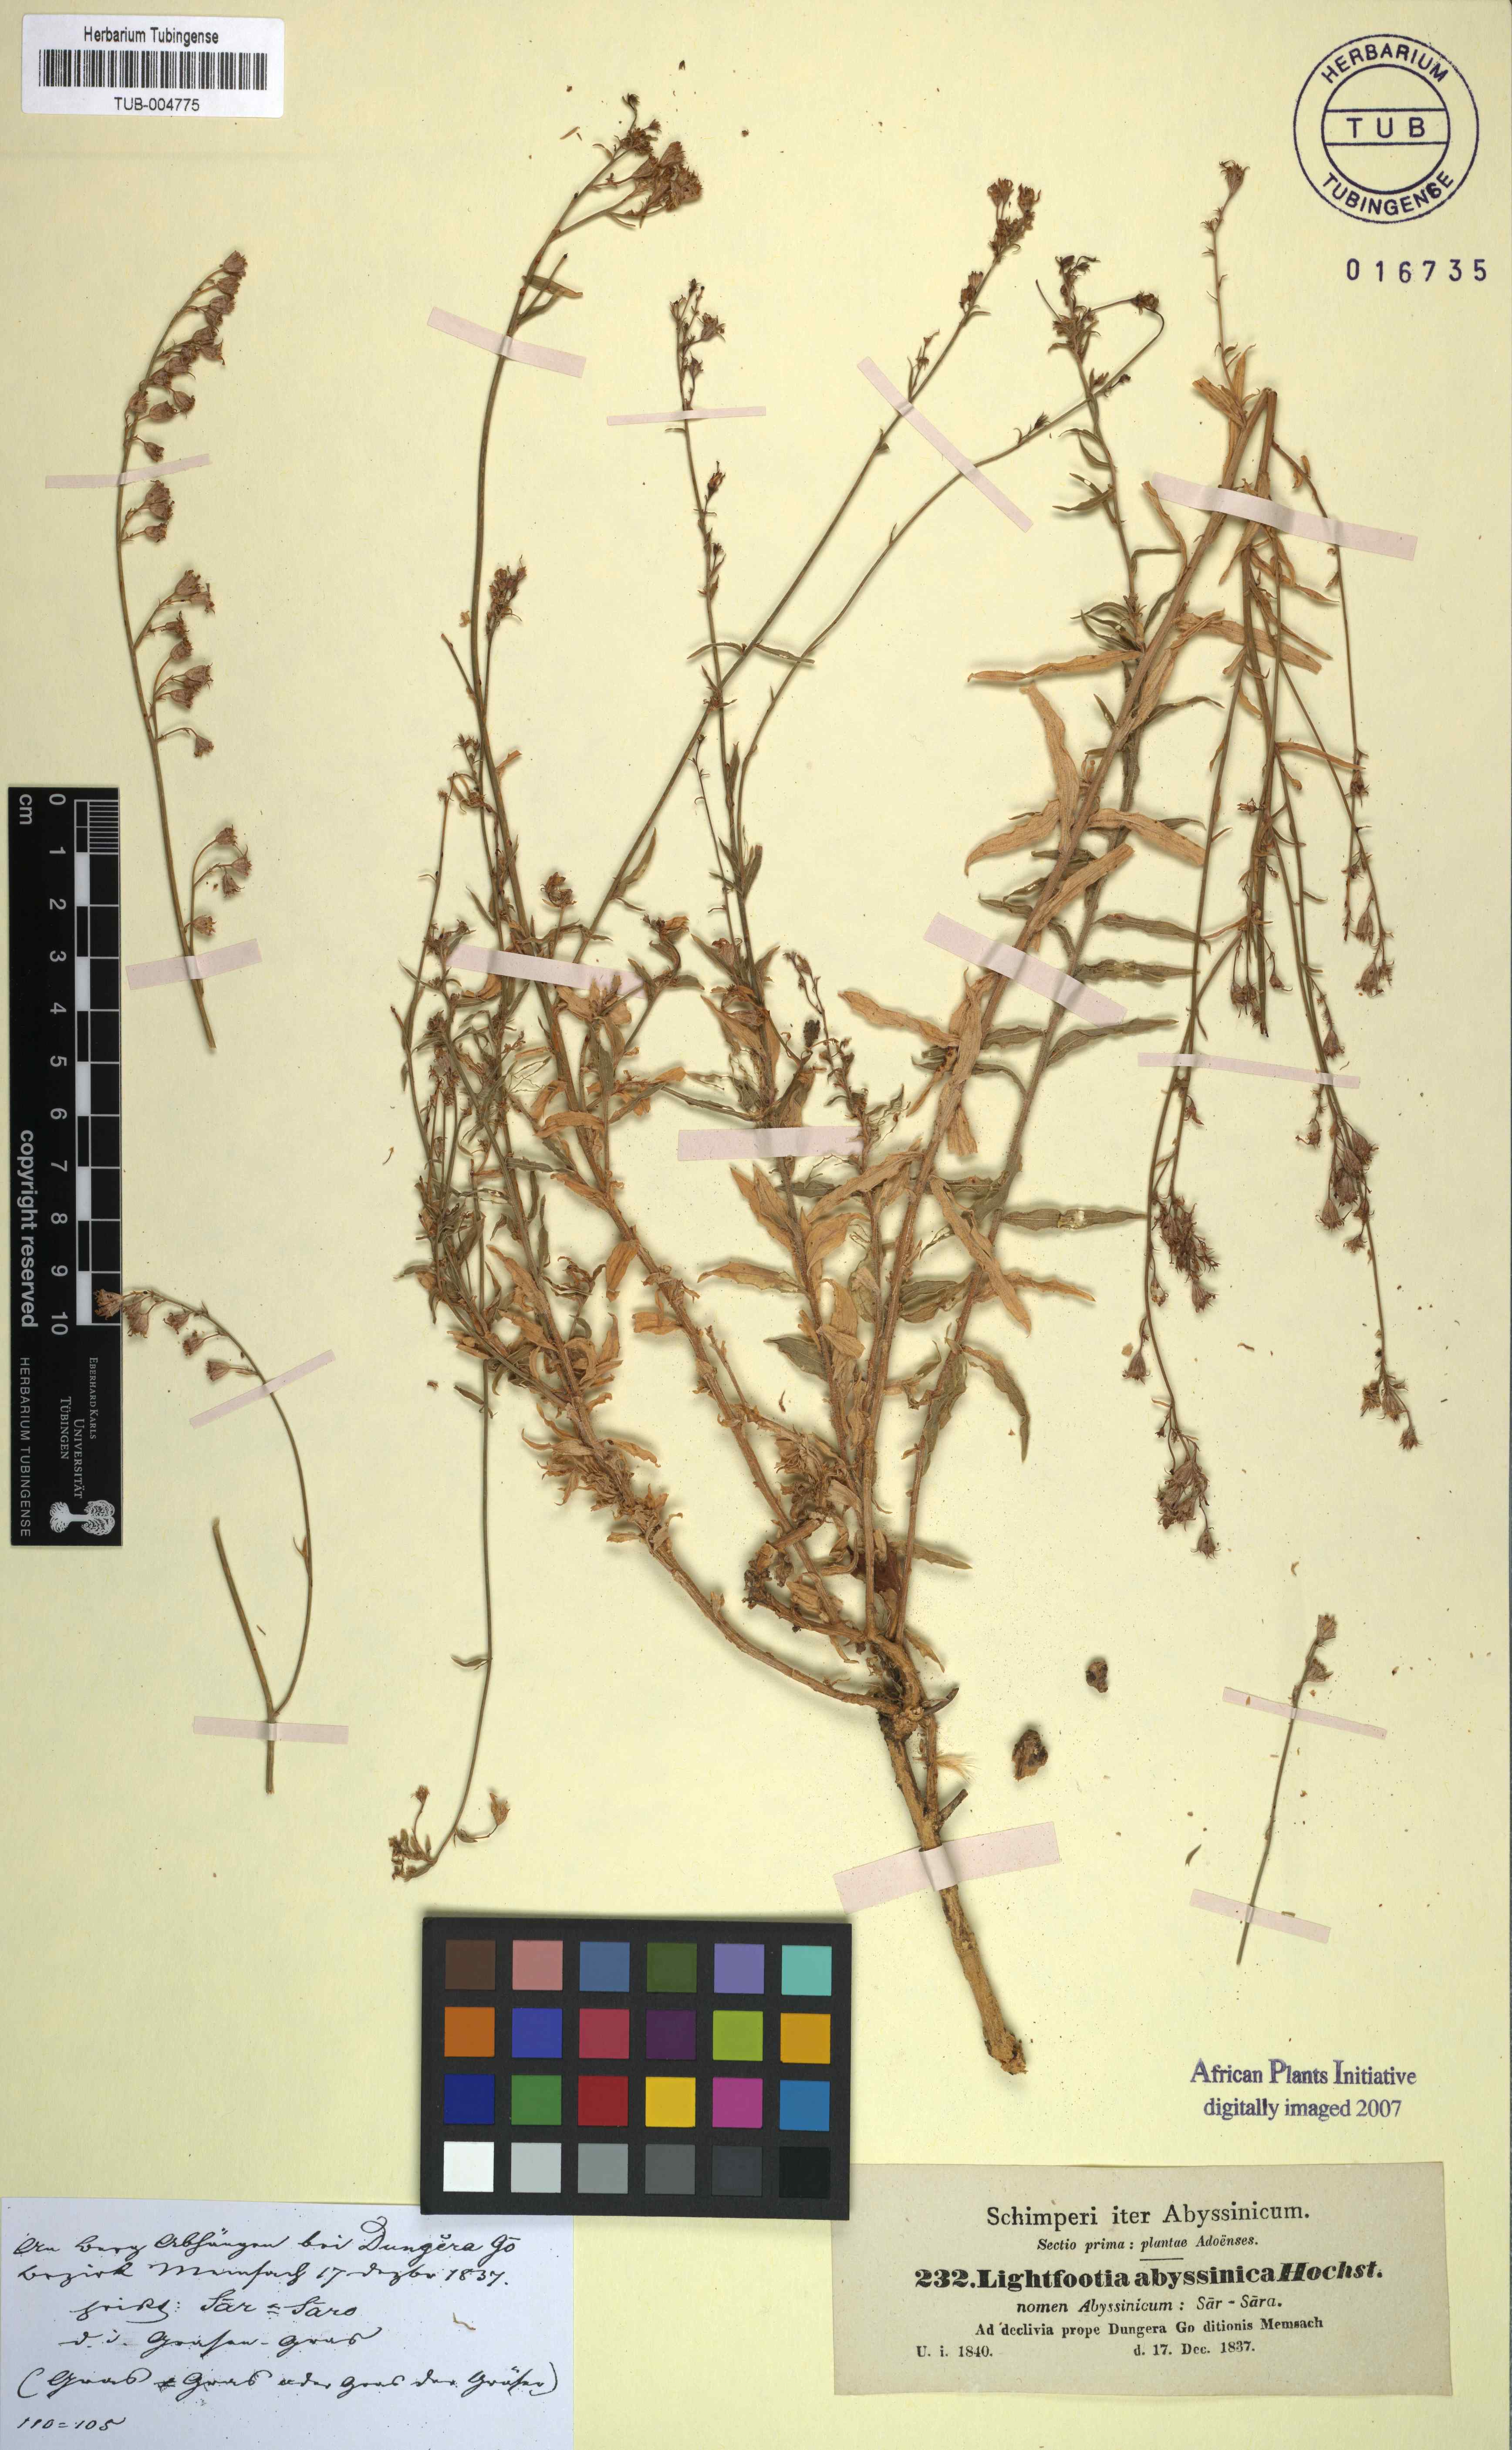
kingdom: Plantae
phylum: Tracheophyta
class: Magnoliopsida
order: Asterales
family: Campanulaceae
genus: Wahlenbergia
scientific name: Wahlenbergia abyssinica
